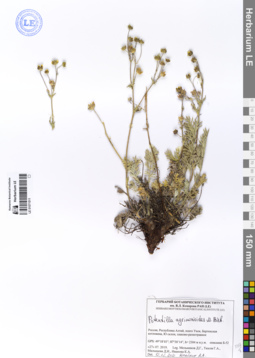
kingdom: Plantae
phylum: Tracheophyta
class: Magnoliopsida
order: Rosales
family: Rosaceae
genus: Potentilla
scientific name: Potentilla agrimonioides
